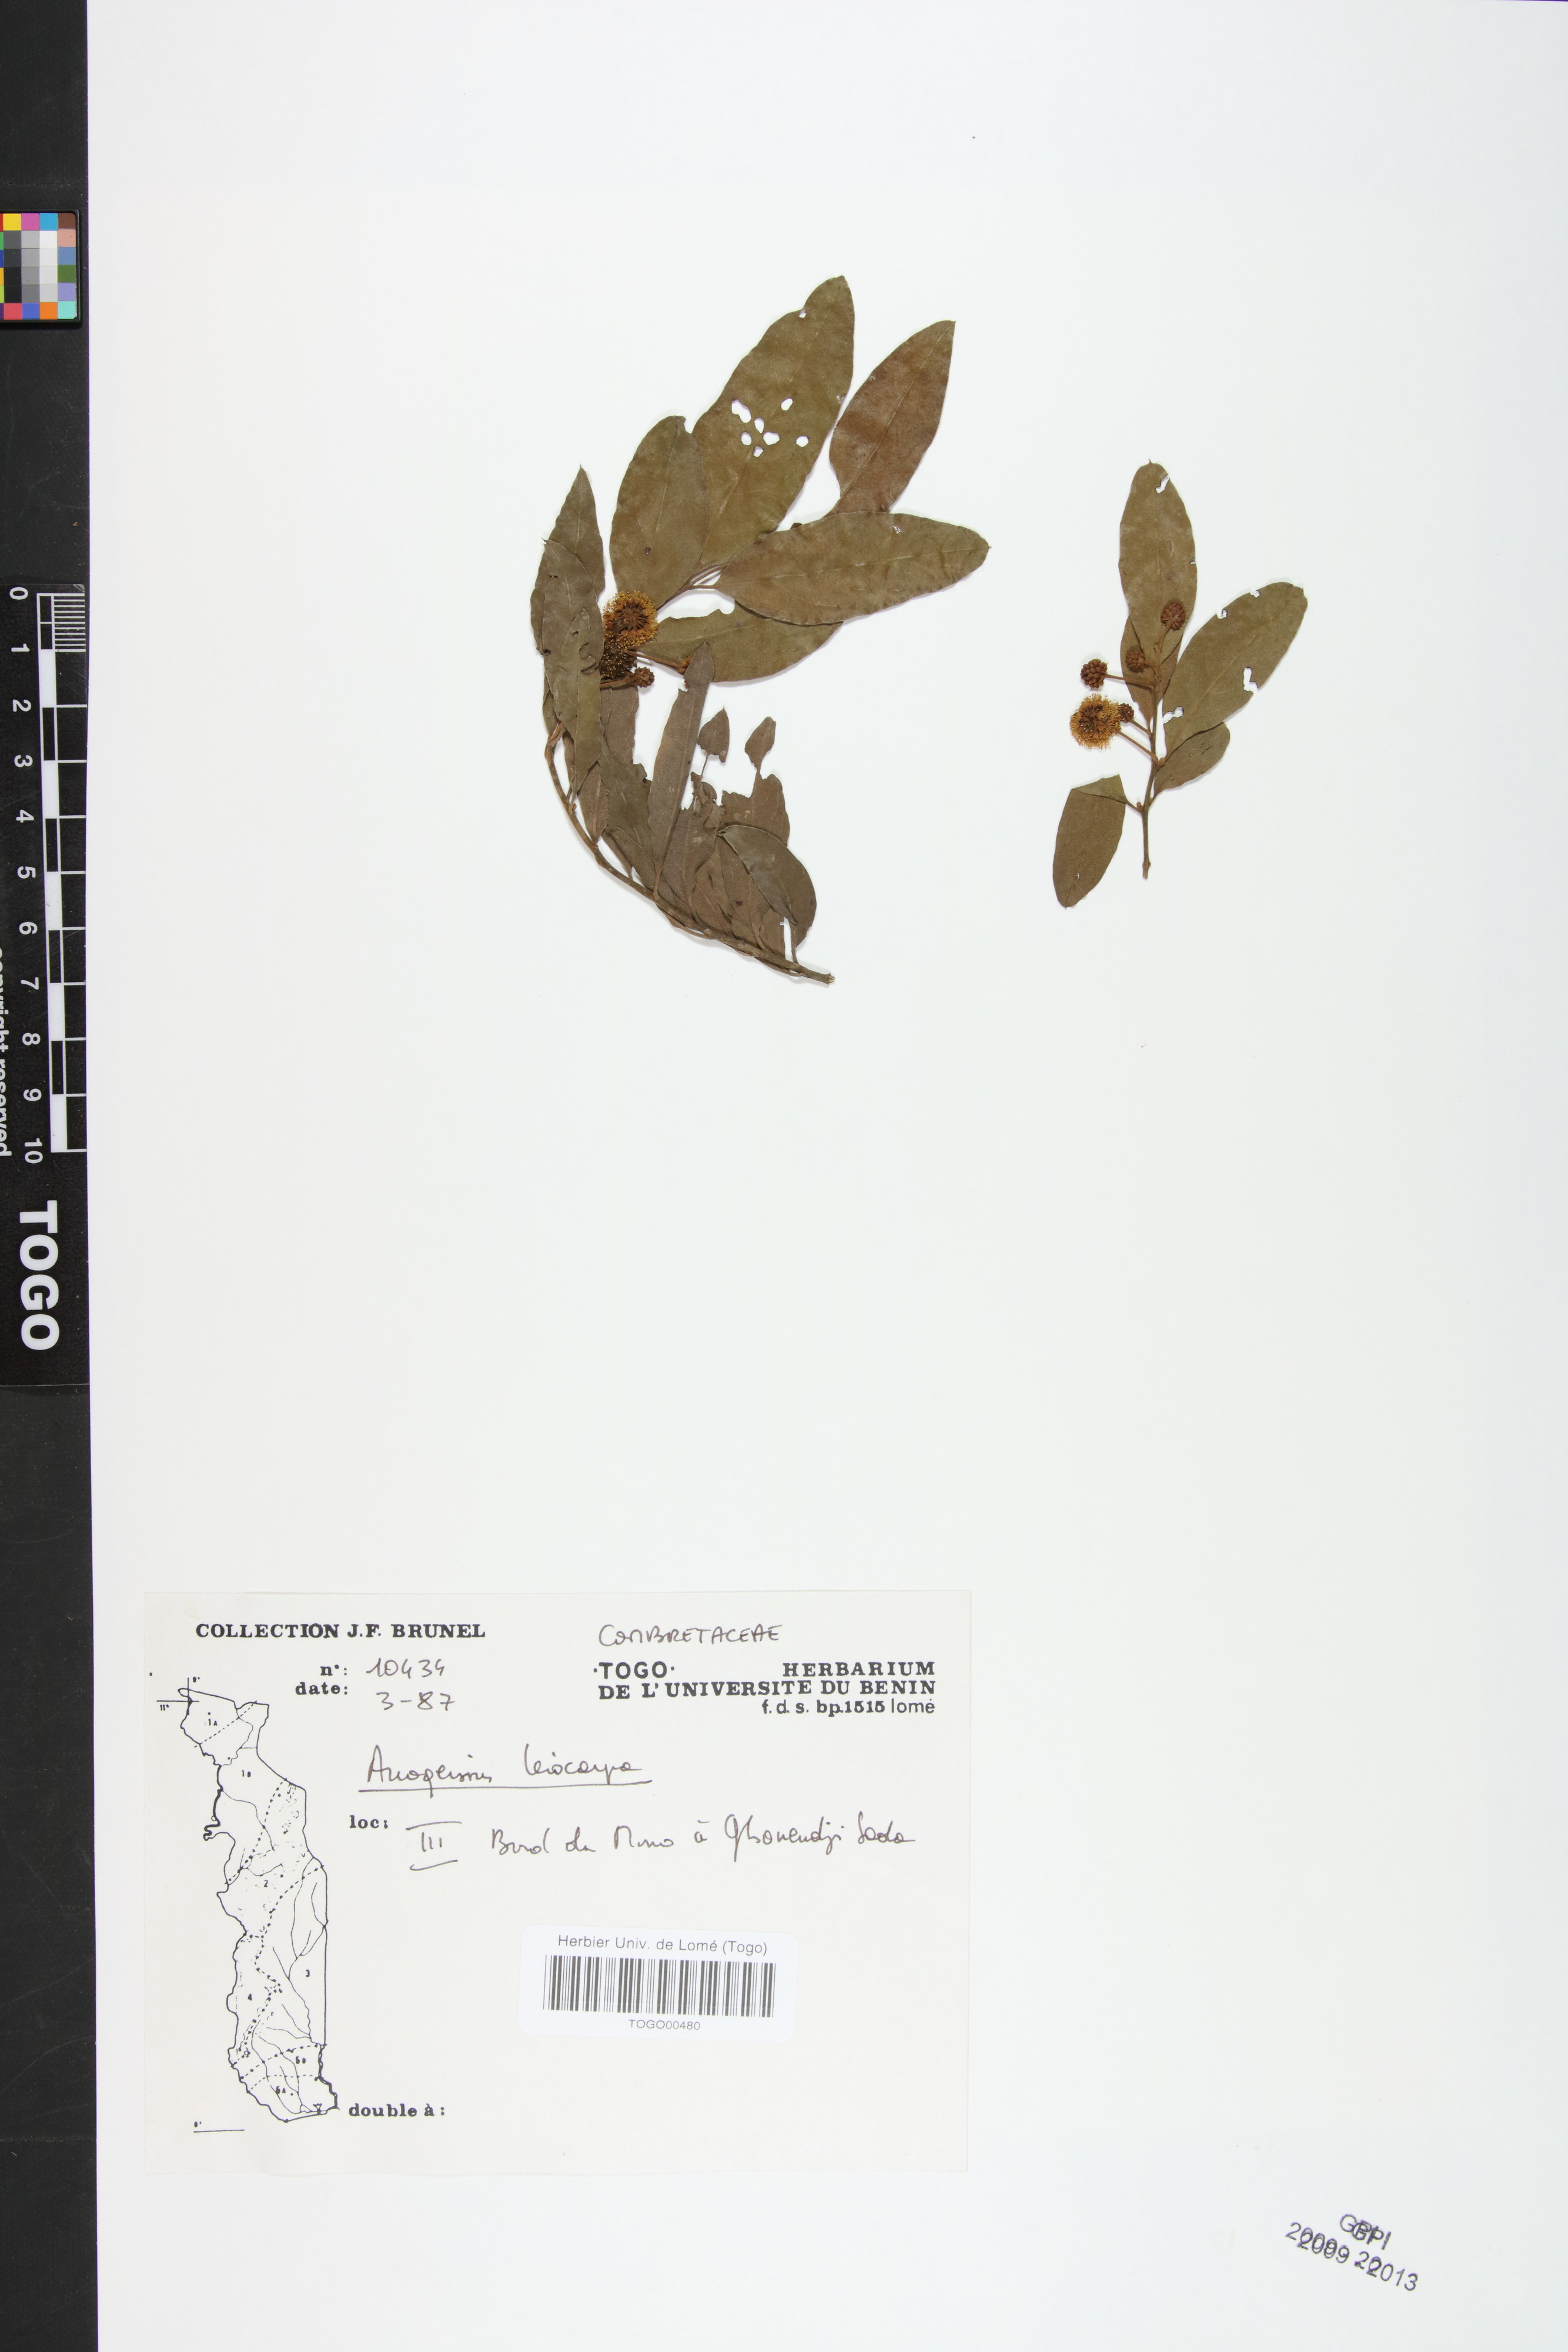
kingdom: Plantae
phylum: Tracheophyta
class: Magnoliopsida
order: Myrtales
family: Combretaceae
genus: Terminalia
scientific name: Terminalia leiocarpa
